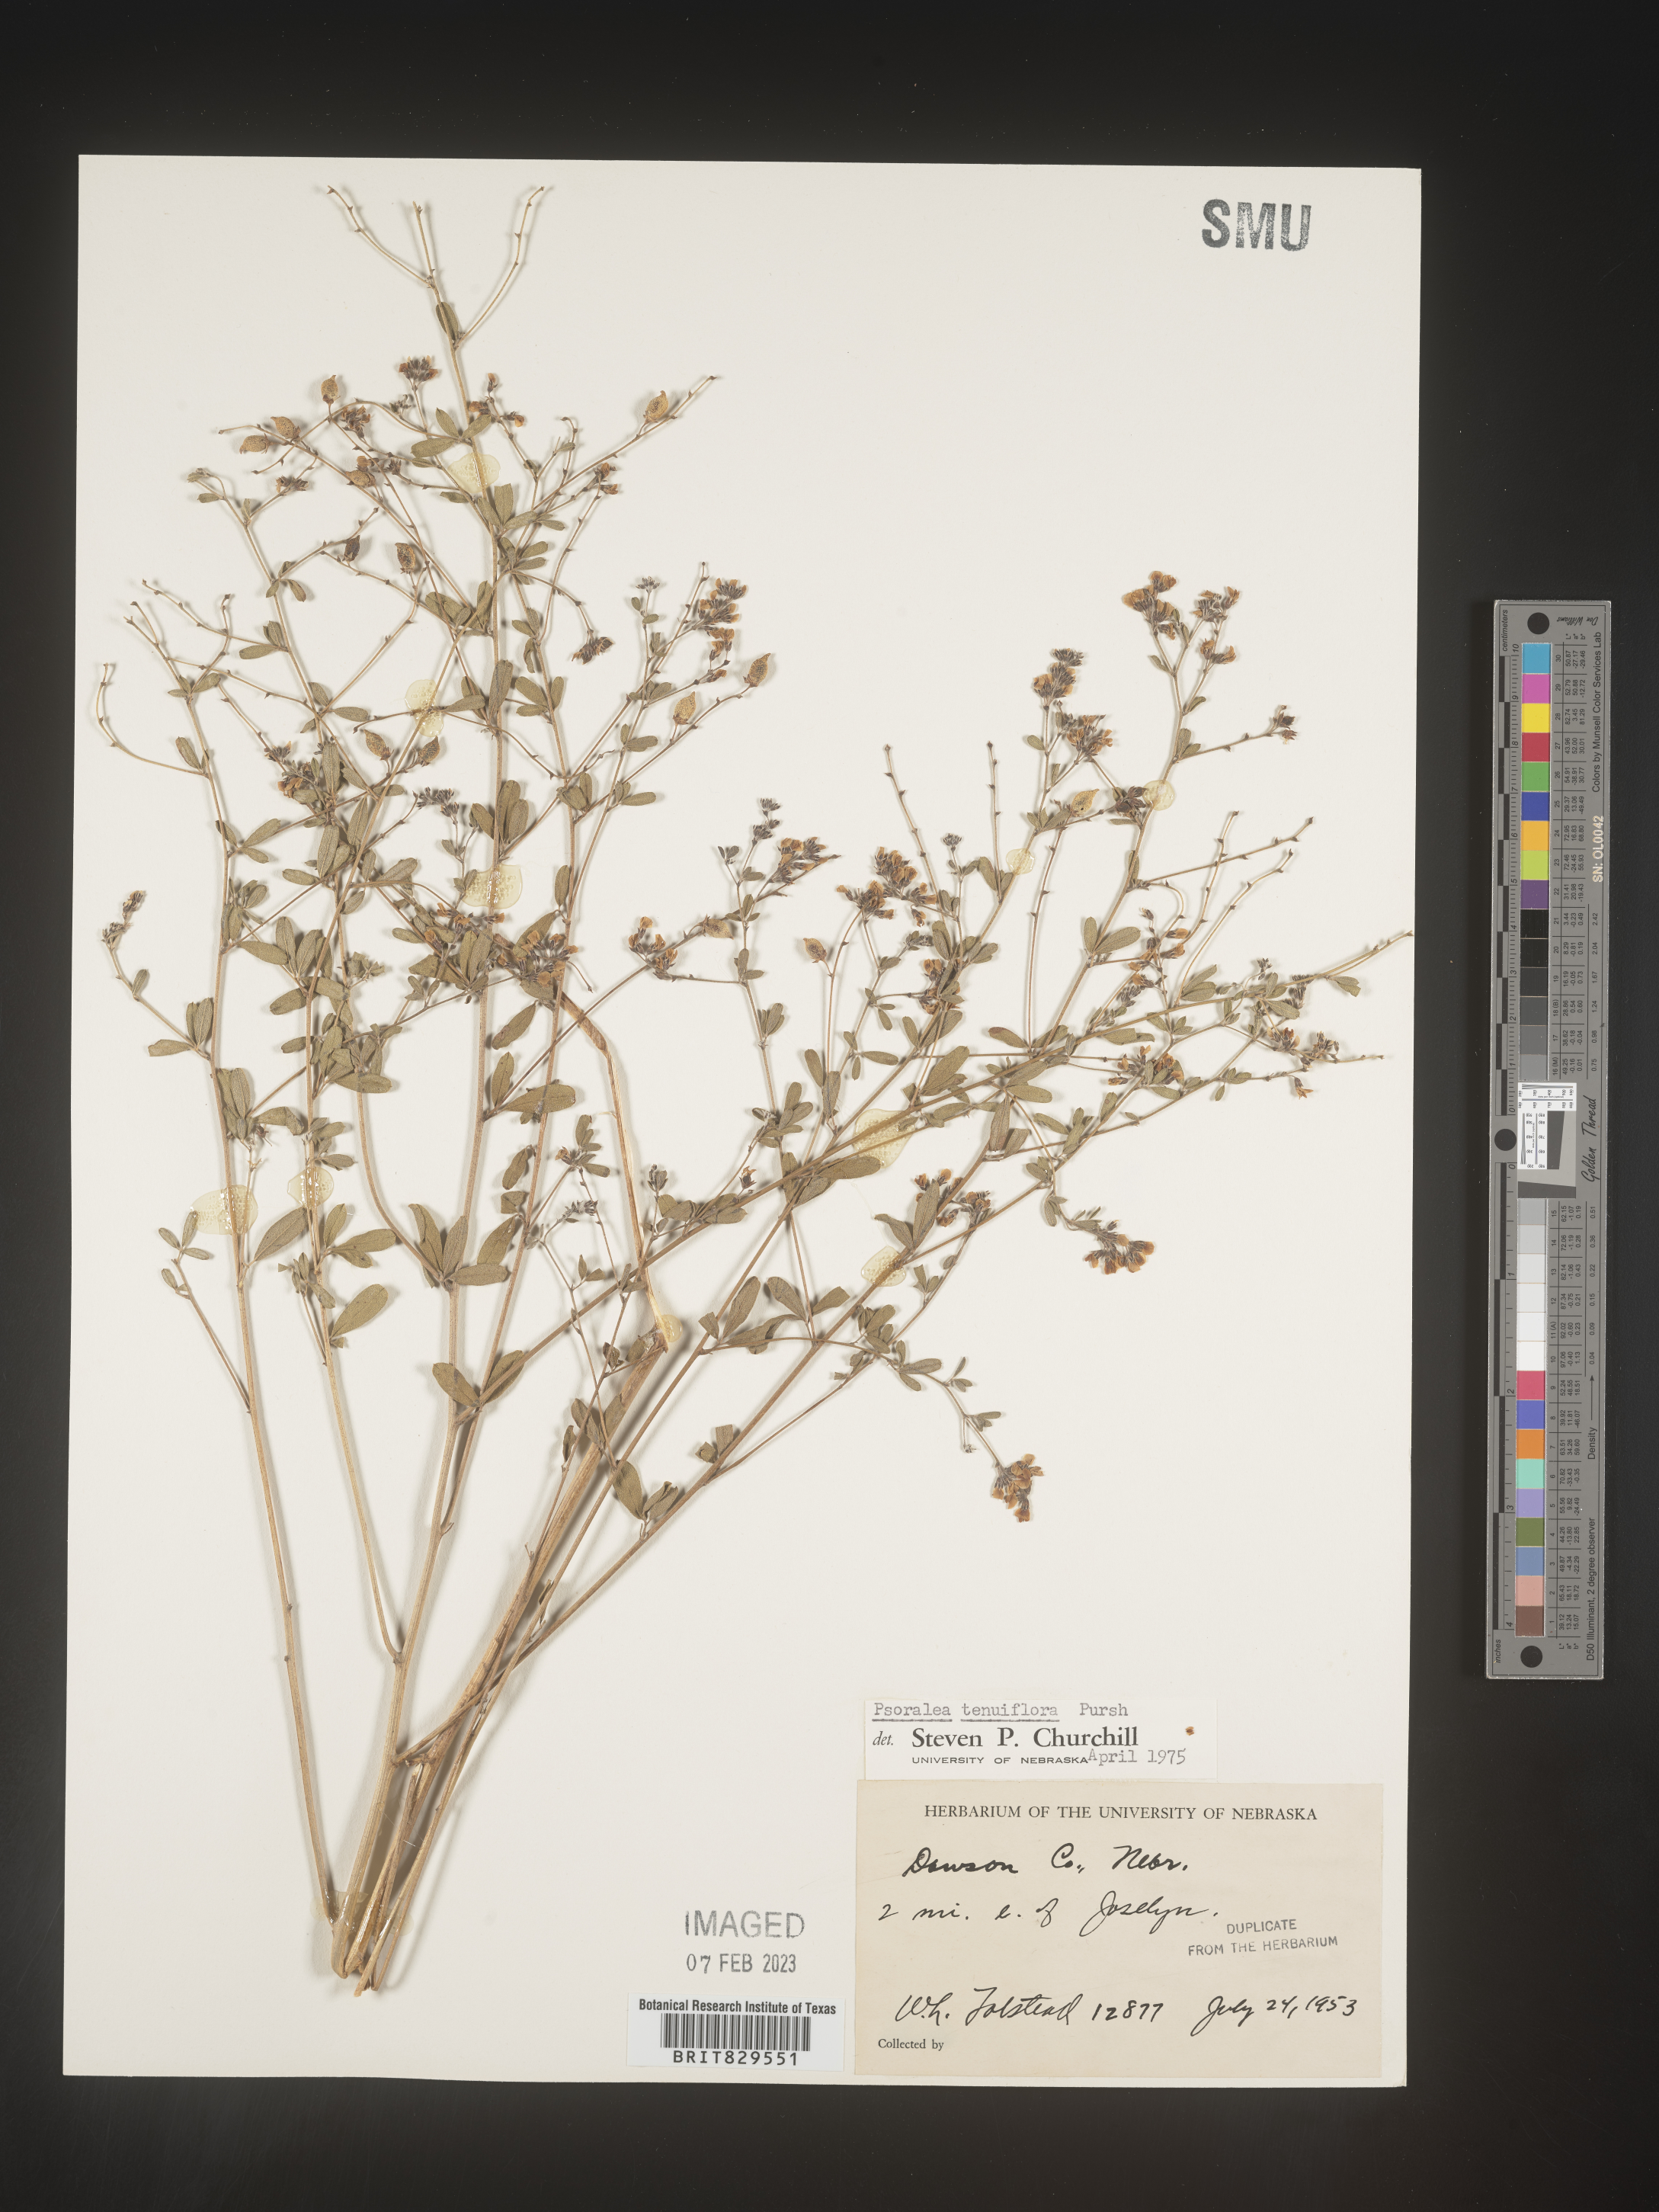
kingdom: Plantae
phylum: Tracheophyta
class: Magnoliopsida
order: Fabales
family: Fabaceae
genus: Pediomelum
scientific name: Pediomelum tenuiflorum
